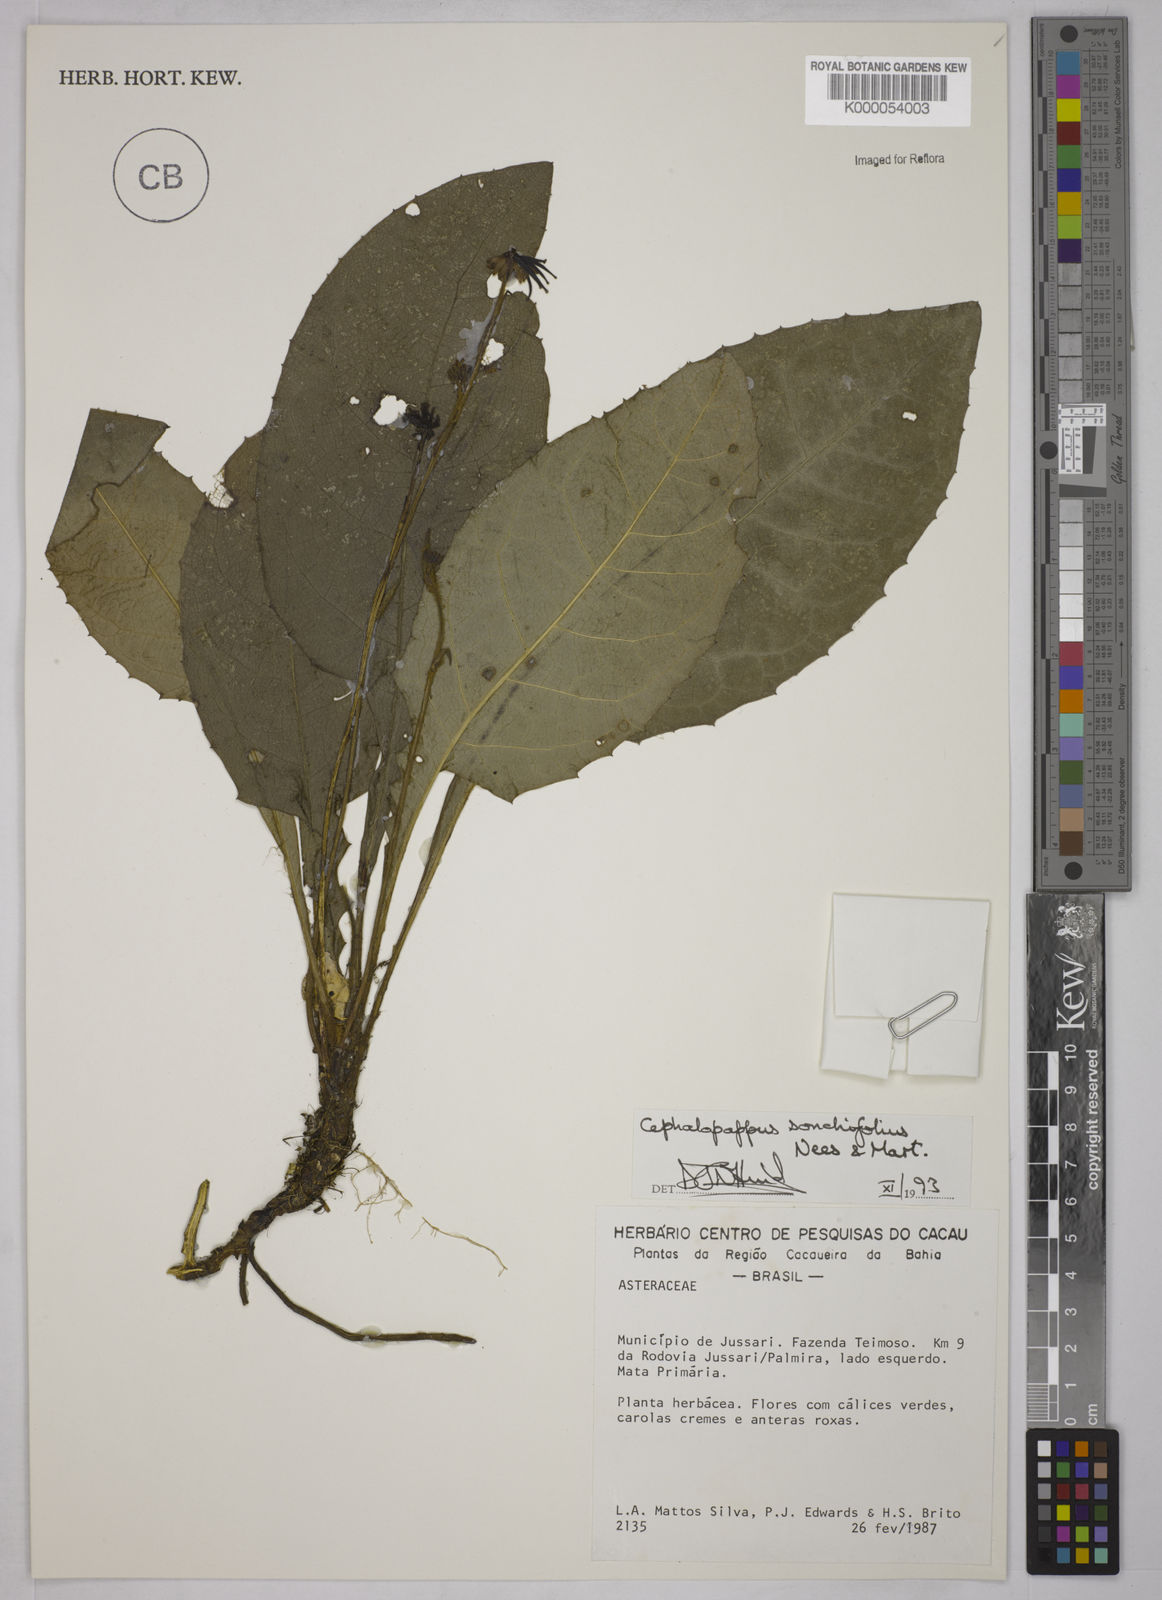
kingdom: Plantae
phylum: Tracheophyta
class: Magnoliopsida
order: Asterales
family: Asteraceae
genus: Cephalopappus
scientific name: Cephalopappus sonchifolius
